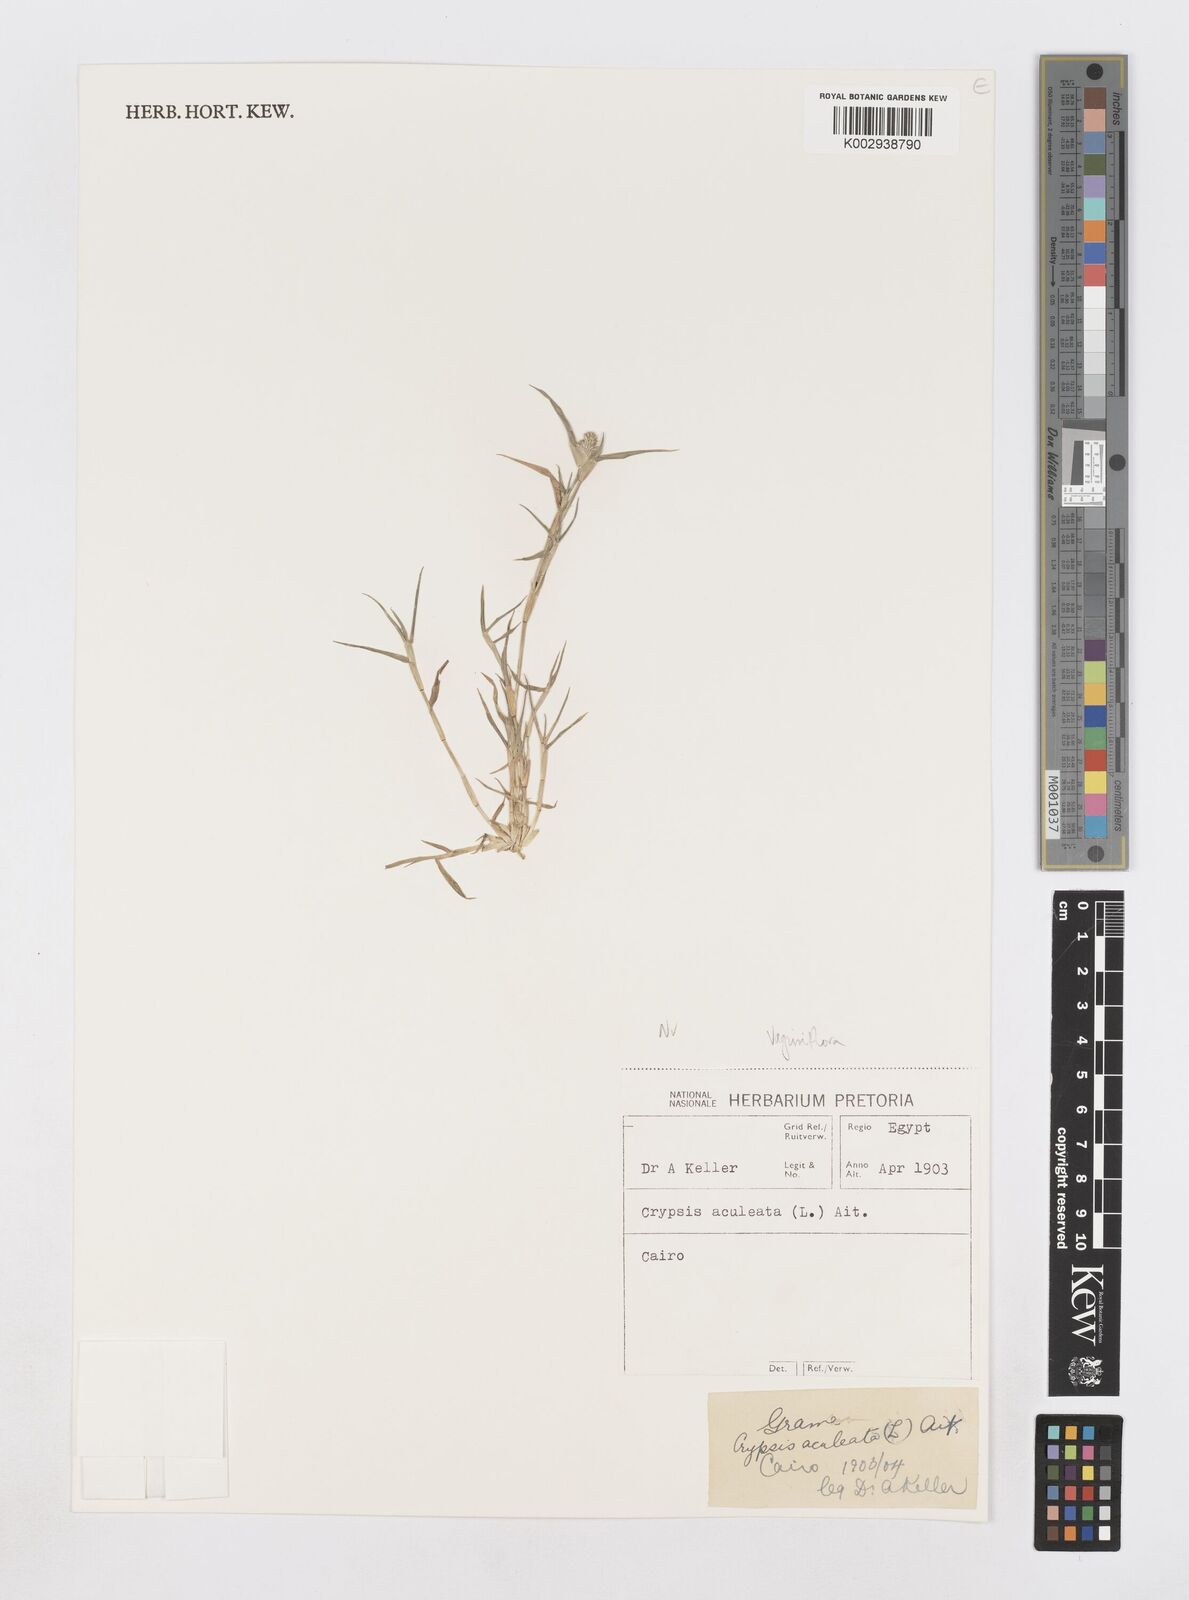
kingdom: Plantae
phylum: Tracheophyta
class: Liliopsida
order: Poales
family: Poaceae
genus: Sporobolus
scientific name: Sporobolus niliacus
